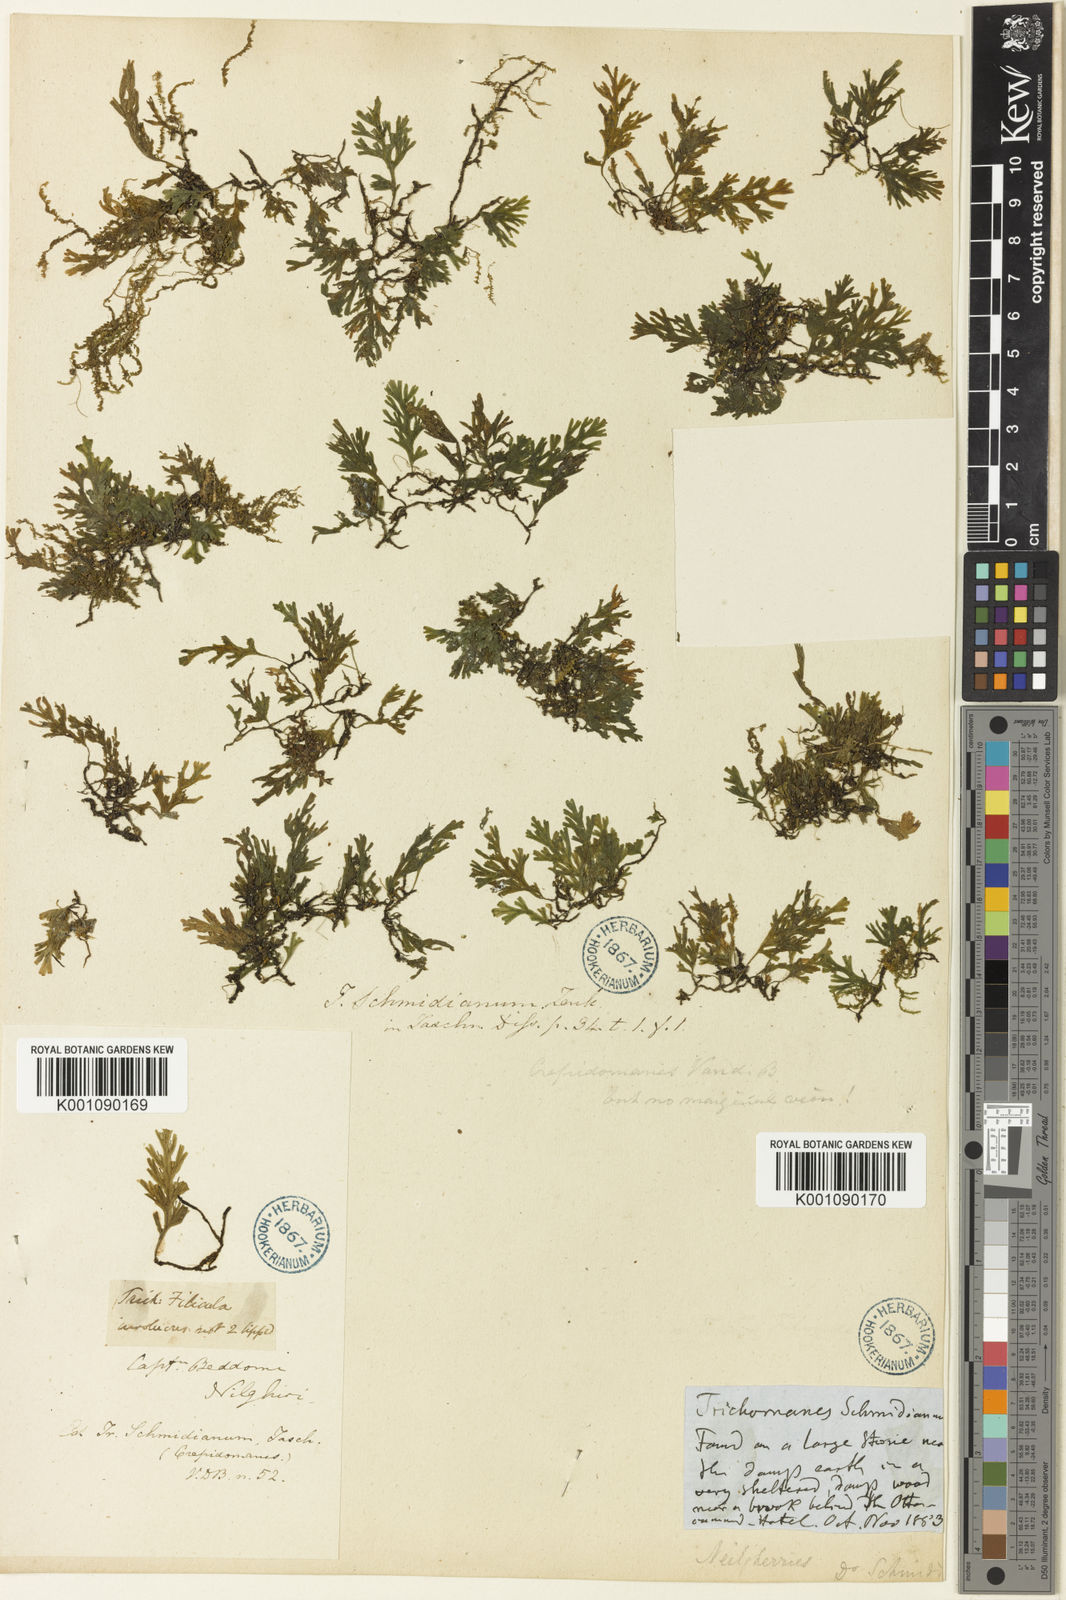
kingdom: Plantae
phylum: Tracheophyta
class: Polypodiopsida
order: Hymenophyllales
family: Hymenophyllaceae
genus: Crepidomanes
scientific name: Crepidomanes schmidianum
